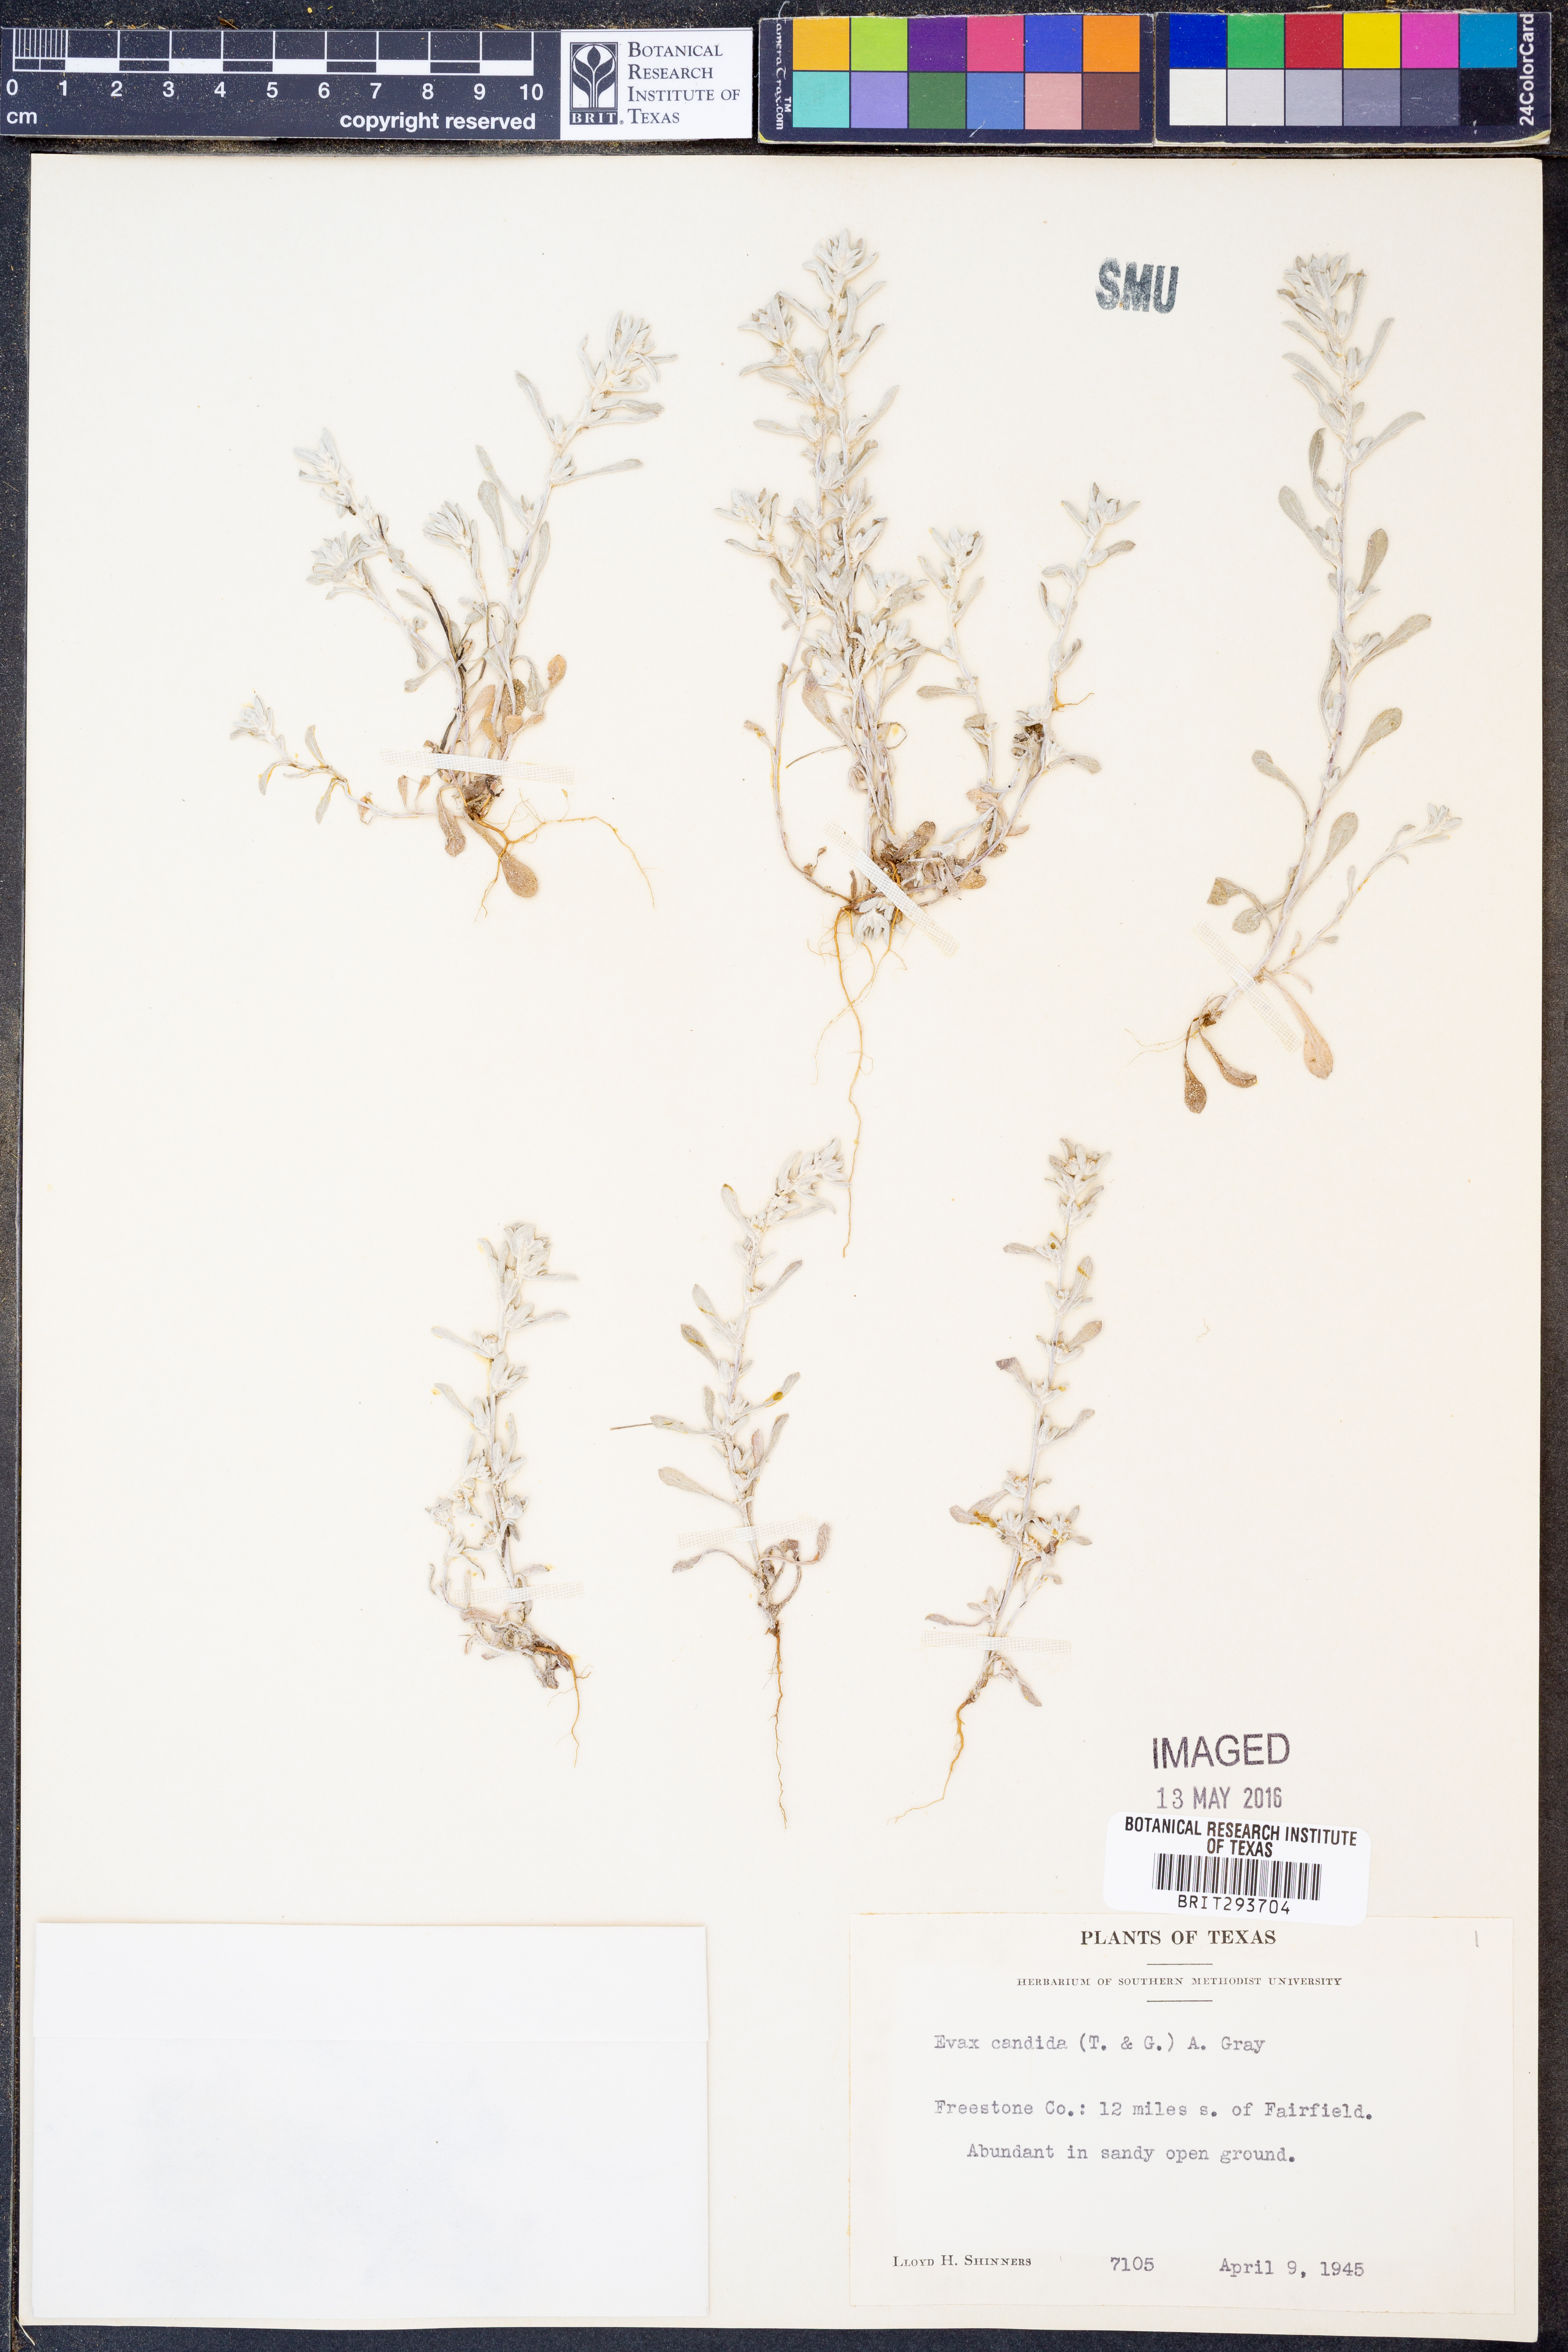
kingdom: Plantae
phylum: Tracheophyta
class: Magnoliopsida
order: Asterales
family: Asteraceae
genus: Diaperia
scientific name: Diaperia candida
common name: Silver rabbit-tobacco
